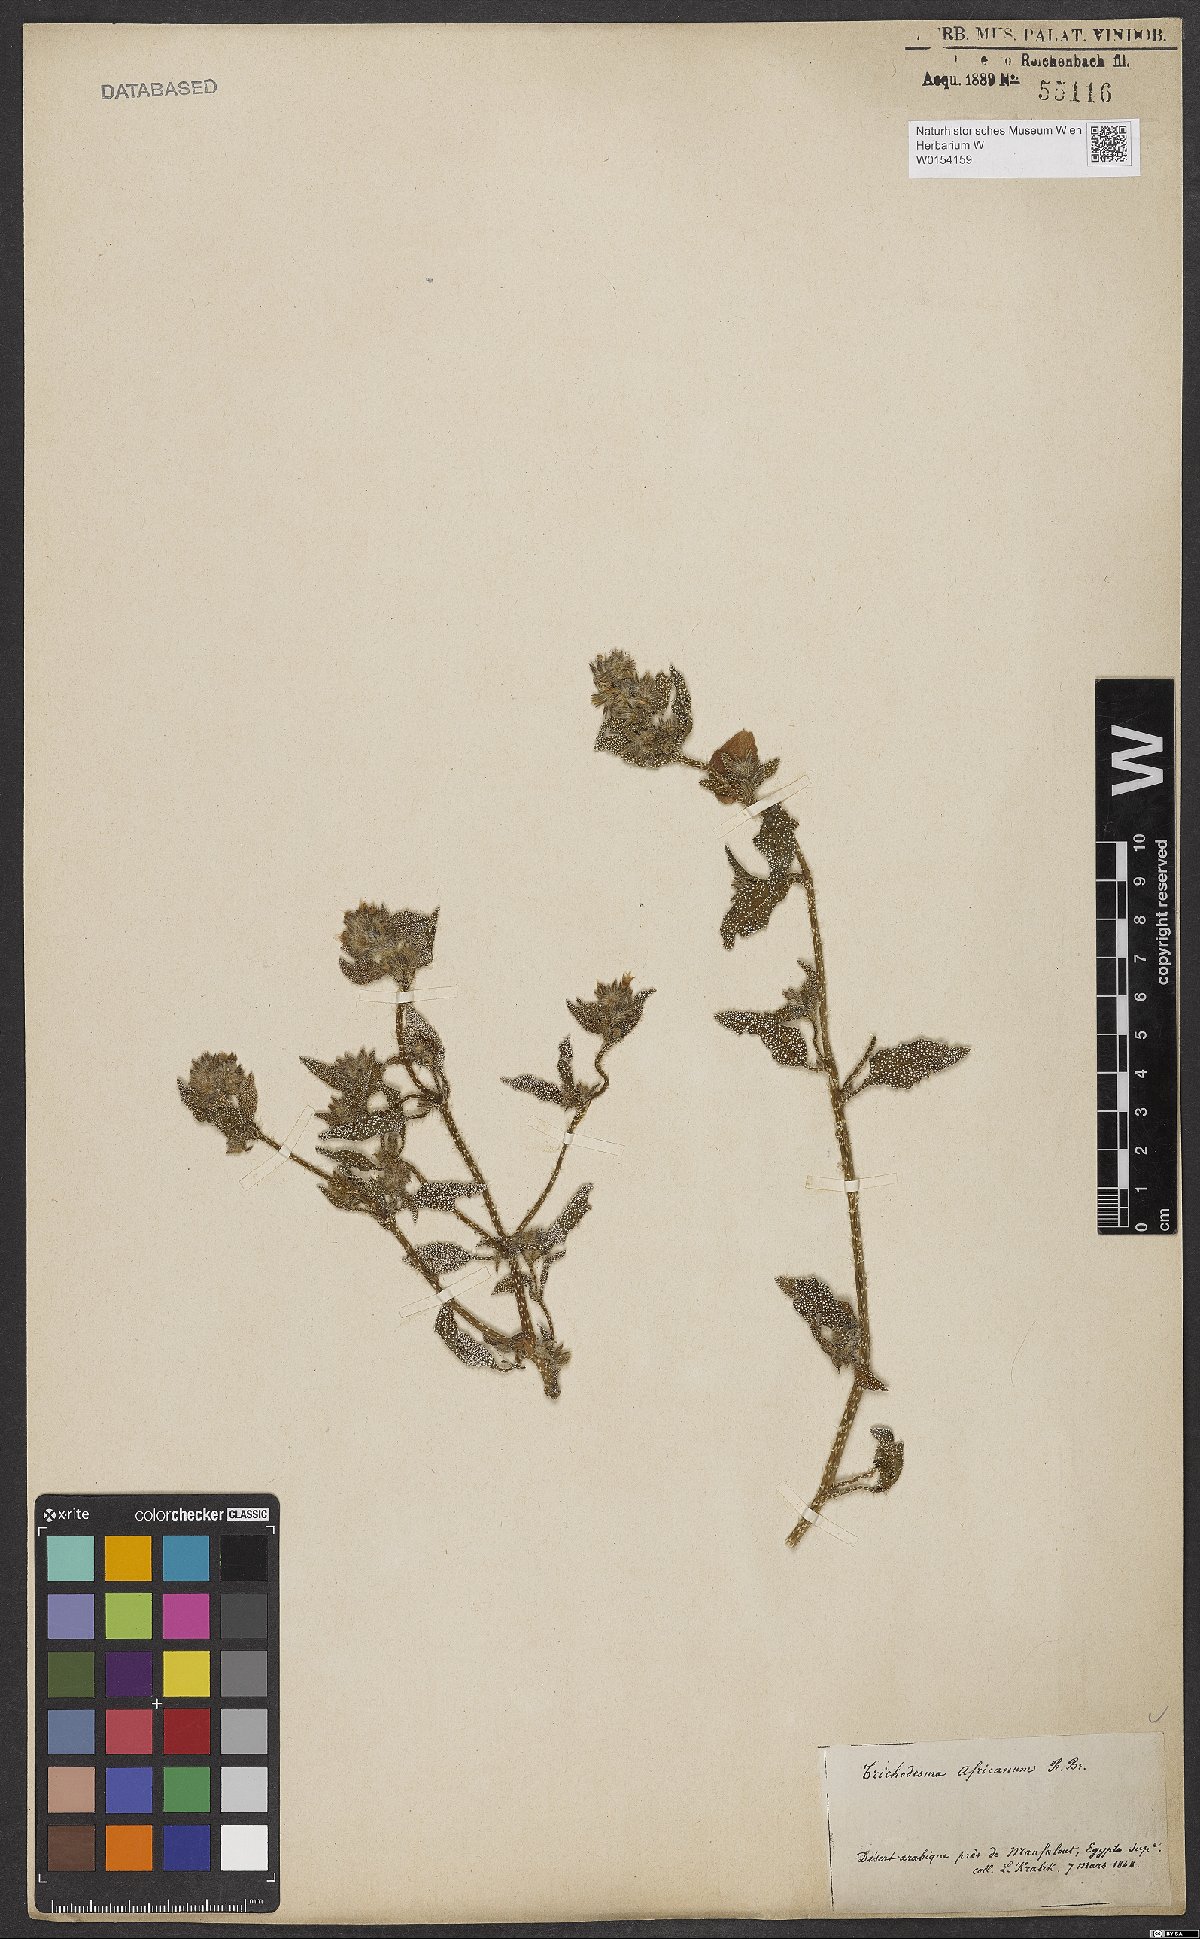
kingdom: Plantae
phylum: Tracheophyta
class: Magnoliopsida
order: Boraginales
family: Boraginaceae
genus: Trichodesma
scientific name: Trichodesma africanum
